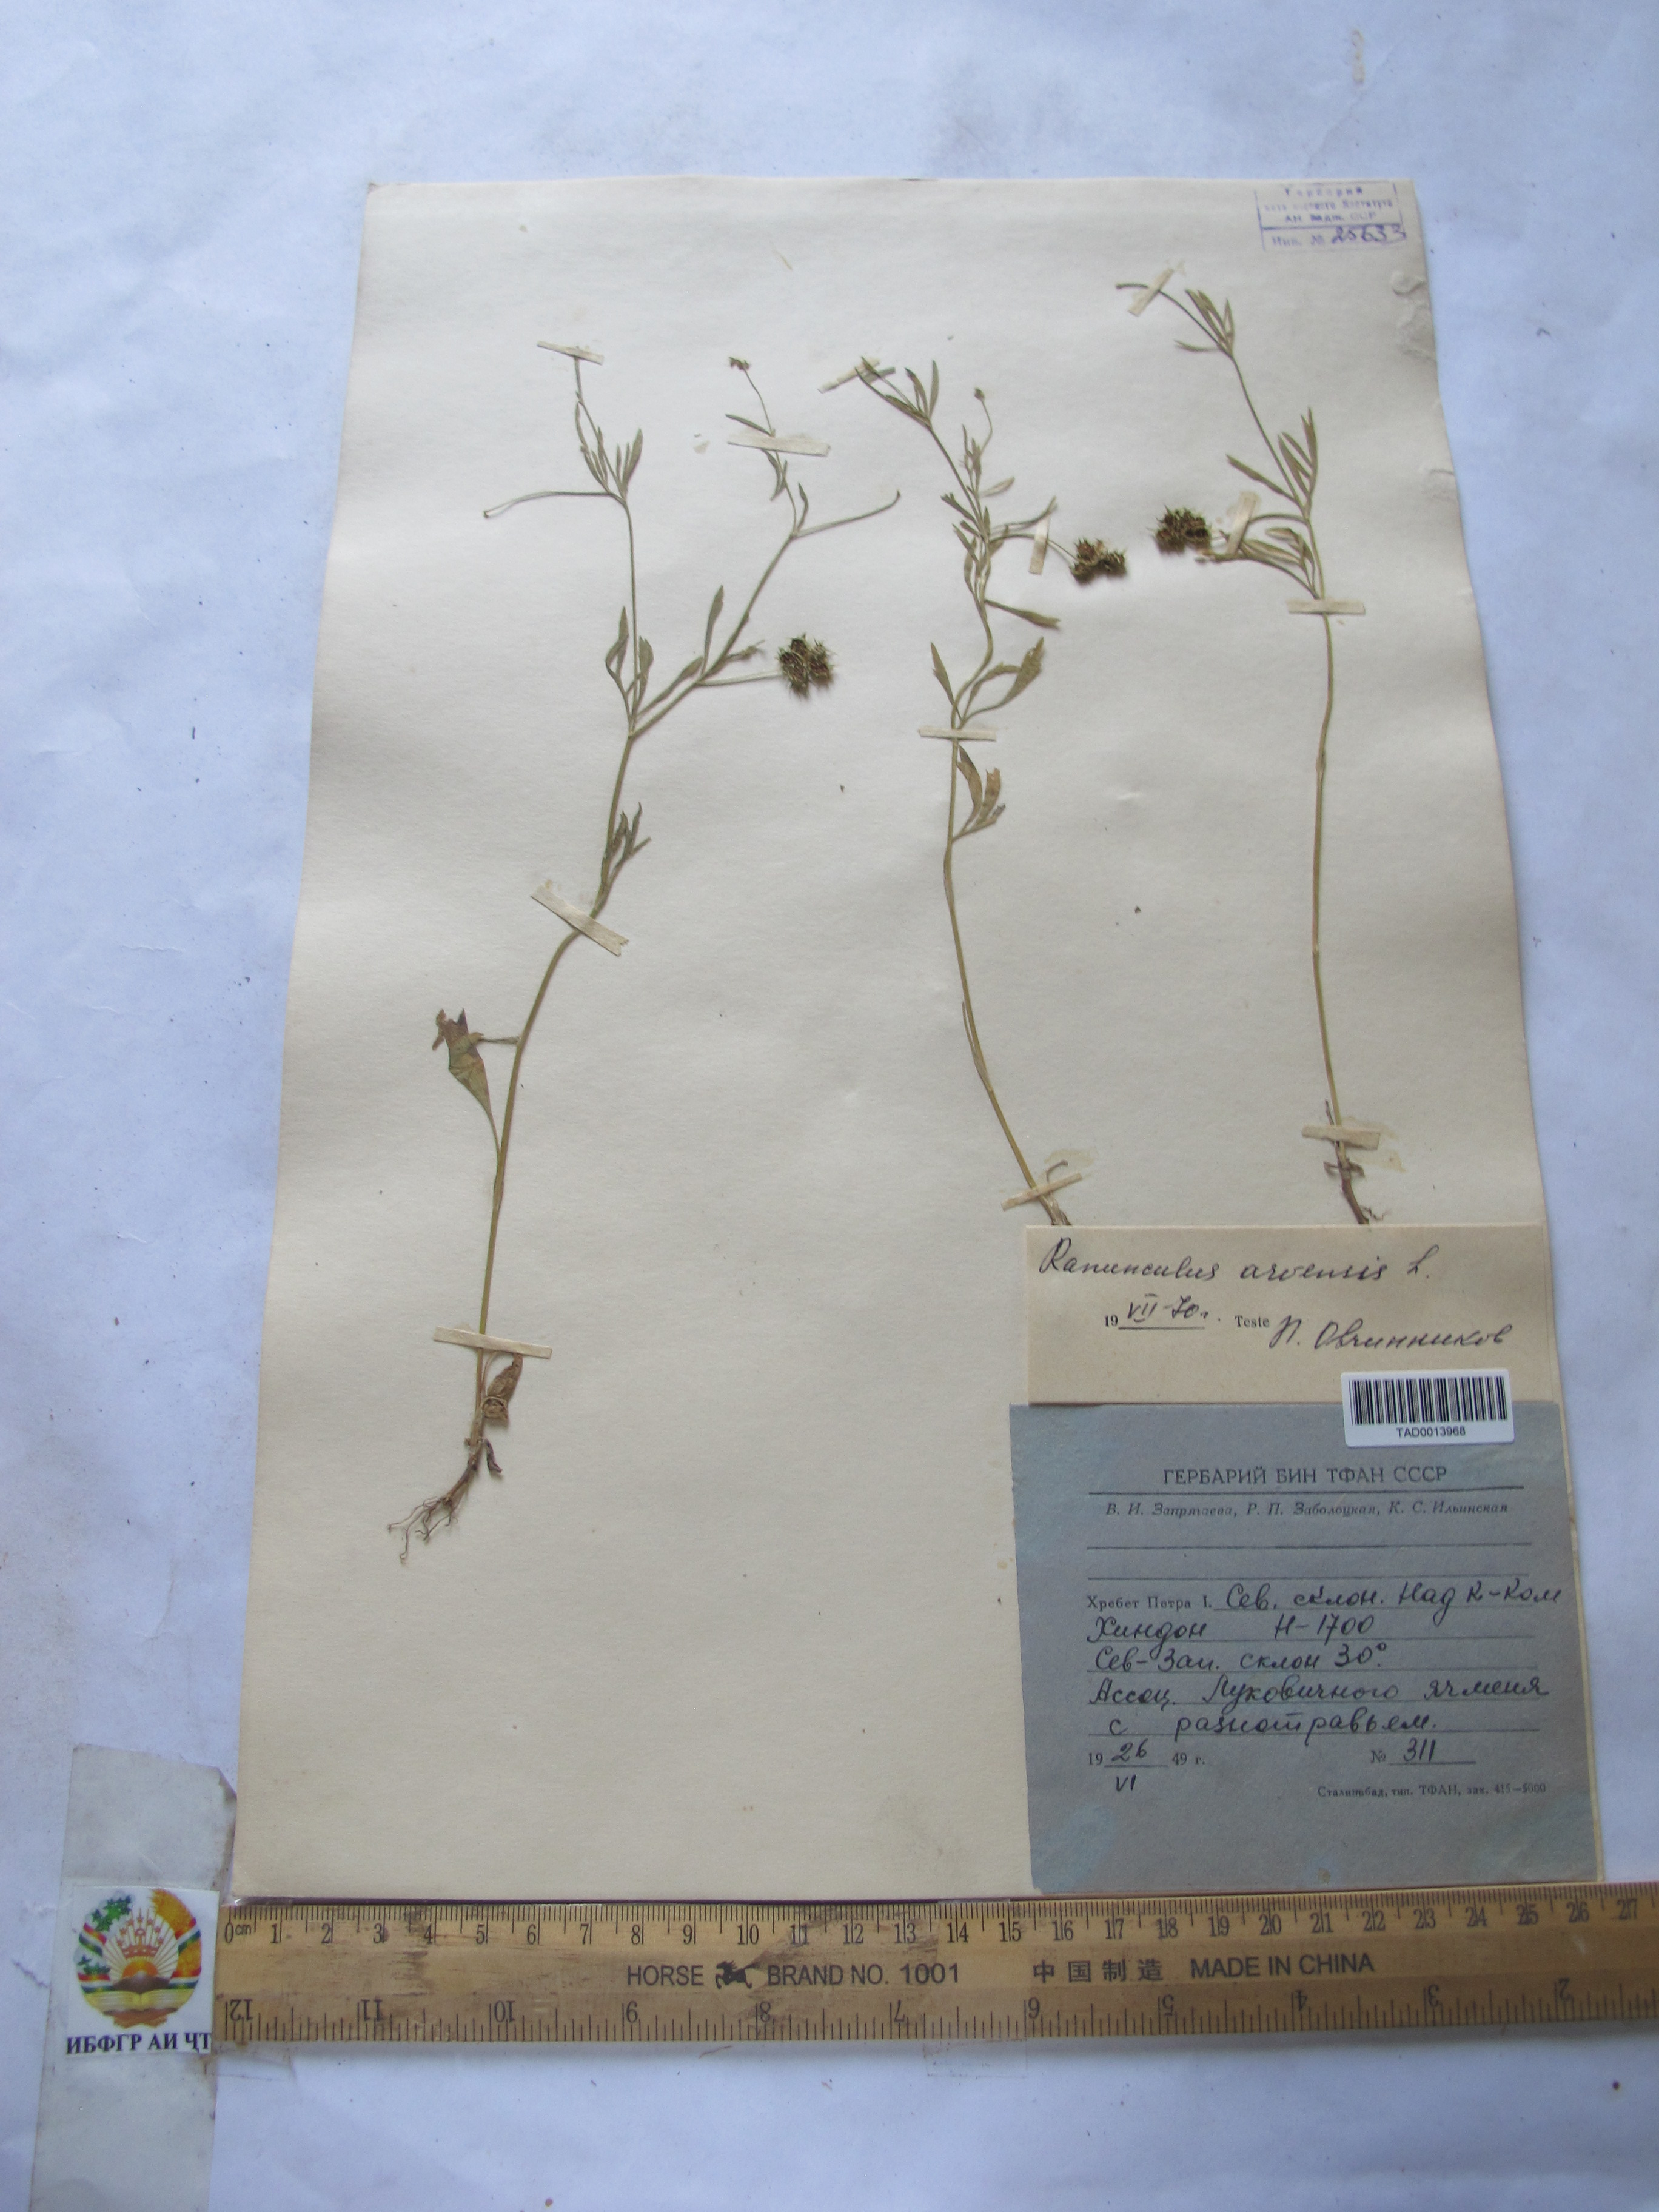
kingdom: Plantae
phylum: Tracheophyta
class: Magnoliopsida
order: Ranunculales
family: Ranunculaceae
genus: Ranunculus
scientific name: Ranunculus arvensis
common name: Corn buttercup
